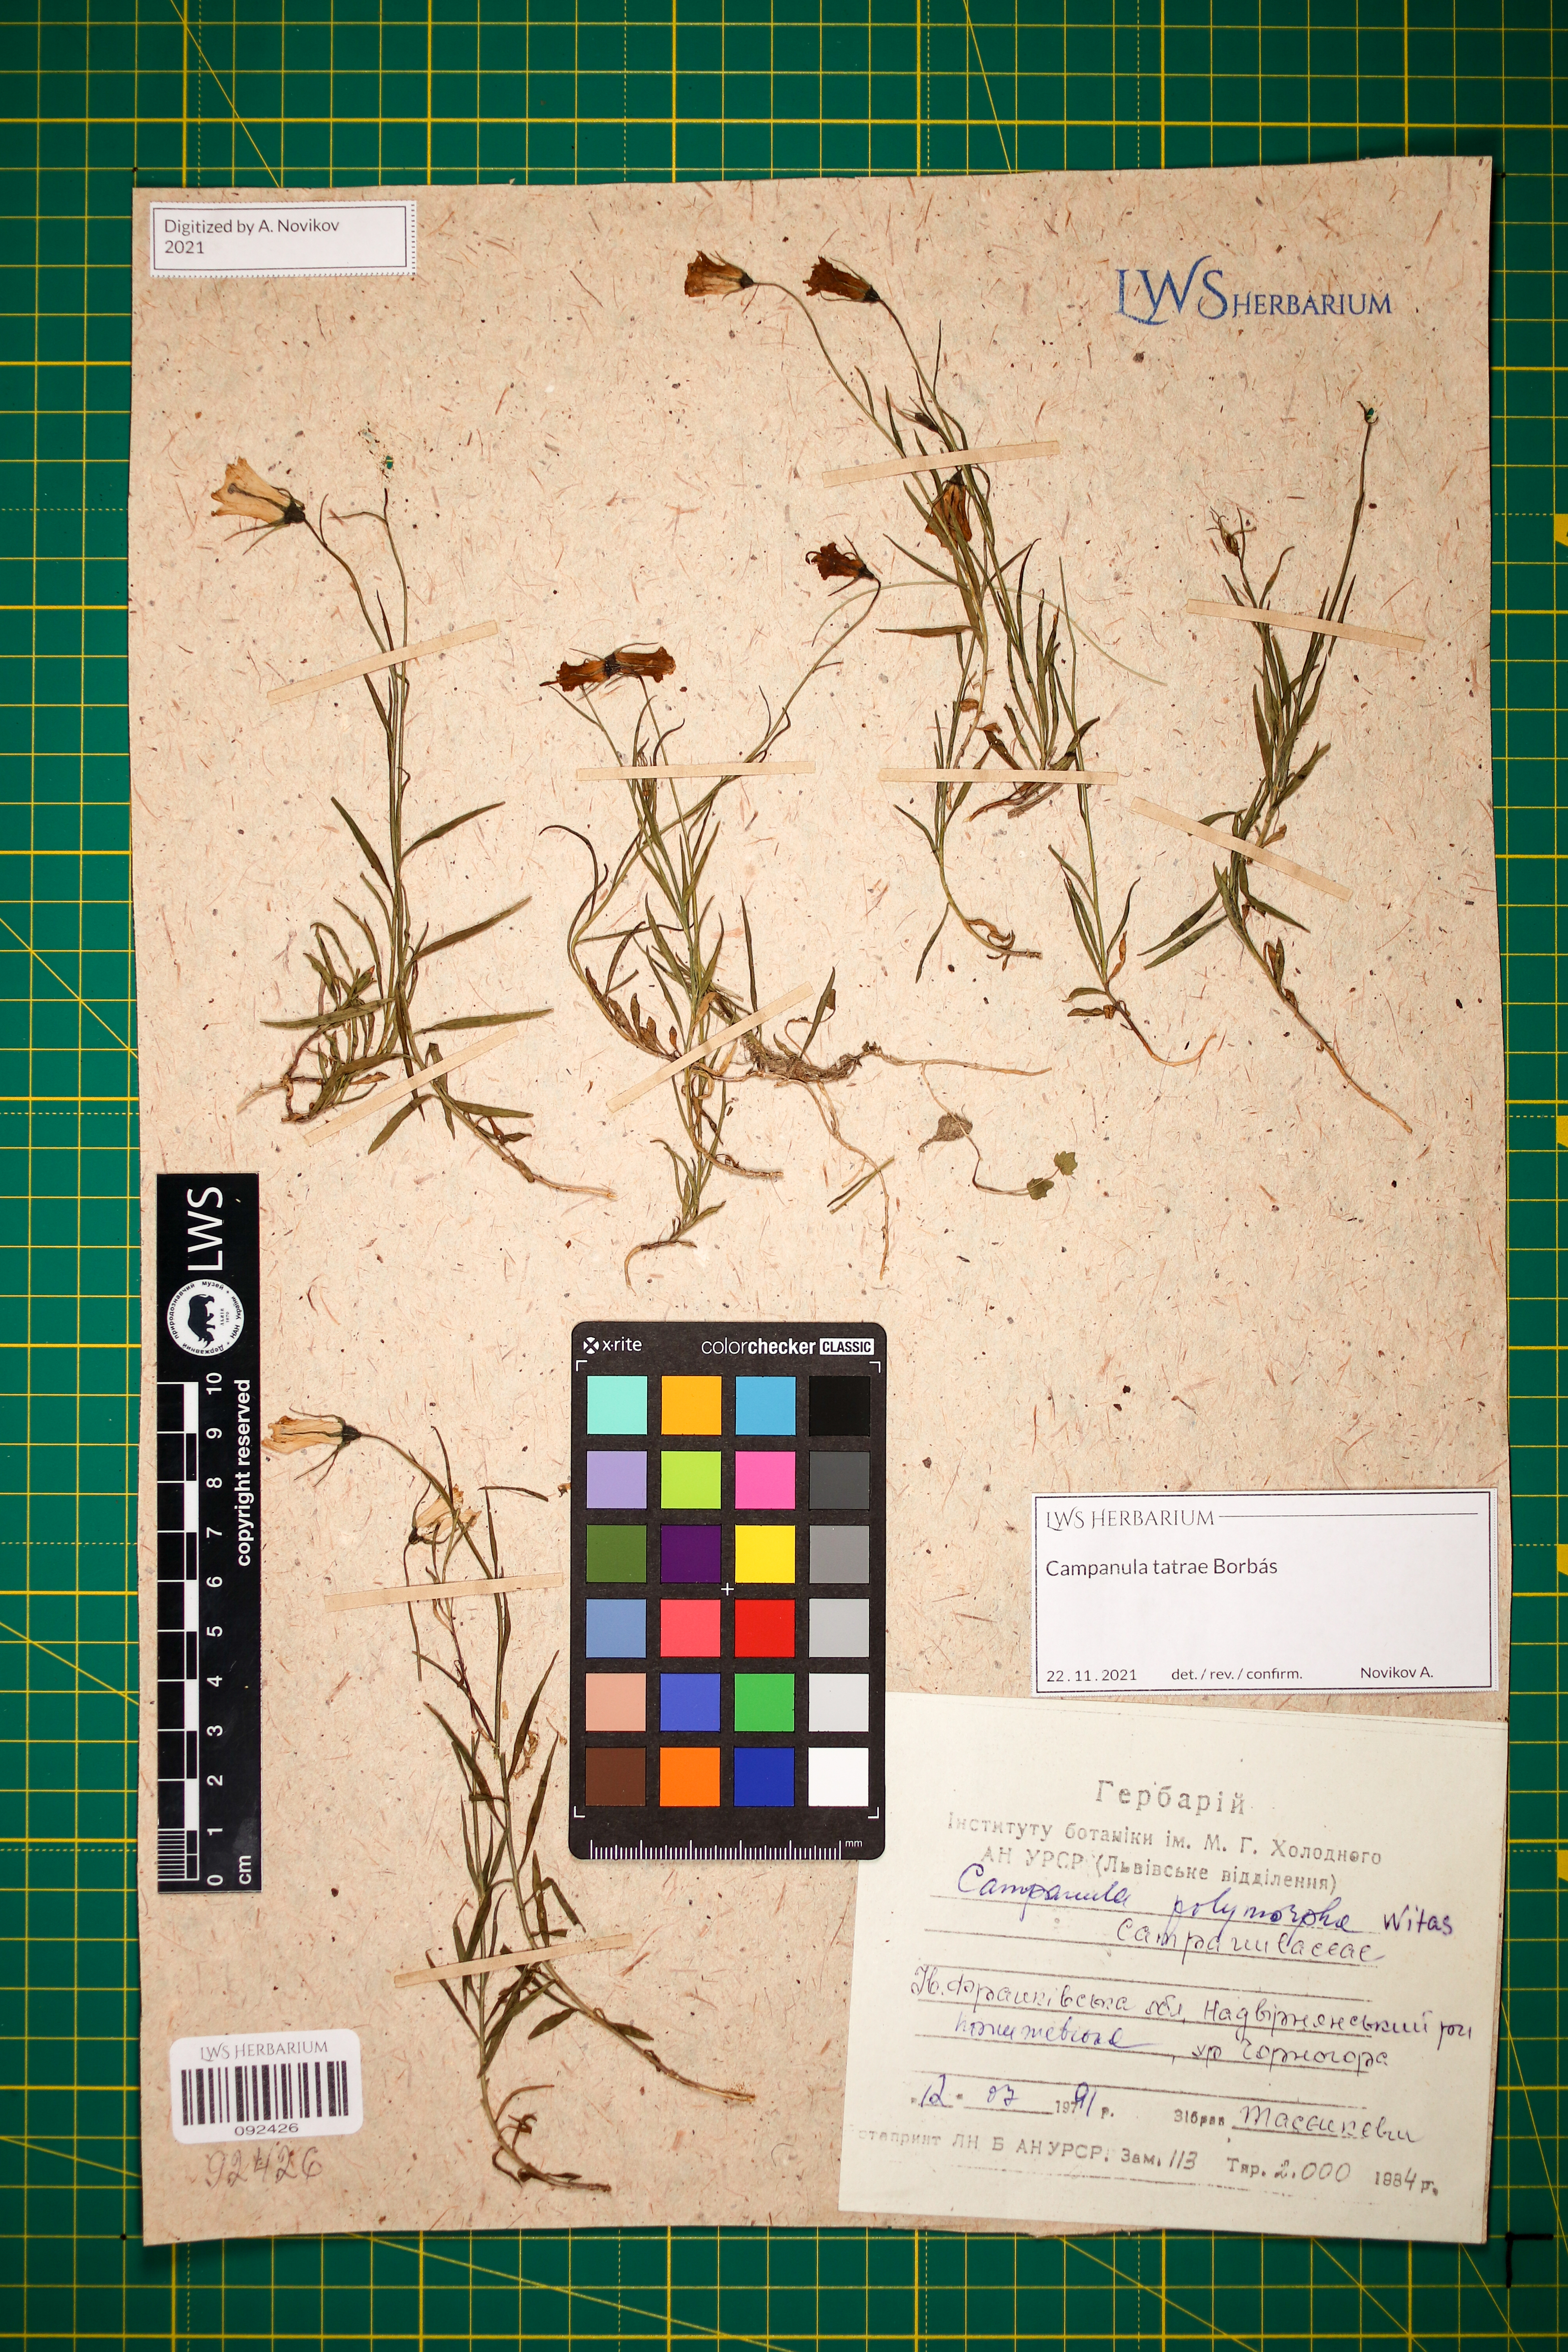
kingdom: Plantae
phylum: Tracheophyta
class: Magnoliopsida
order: Asterales
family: Campanulaceae
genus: Campanula
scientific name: Campanula tatrae
